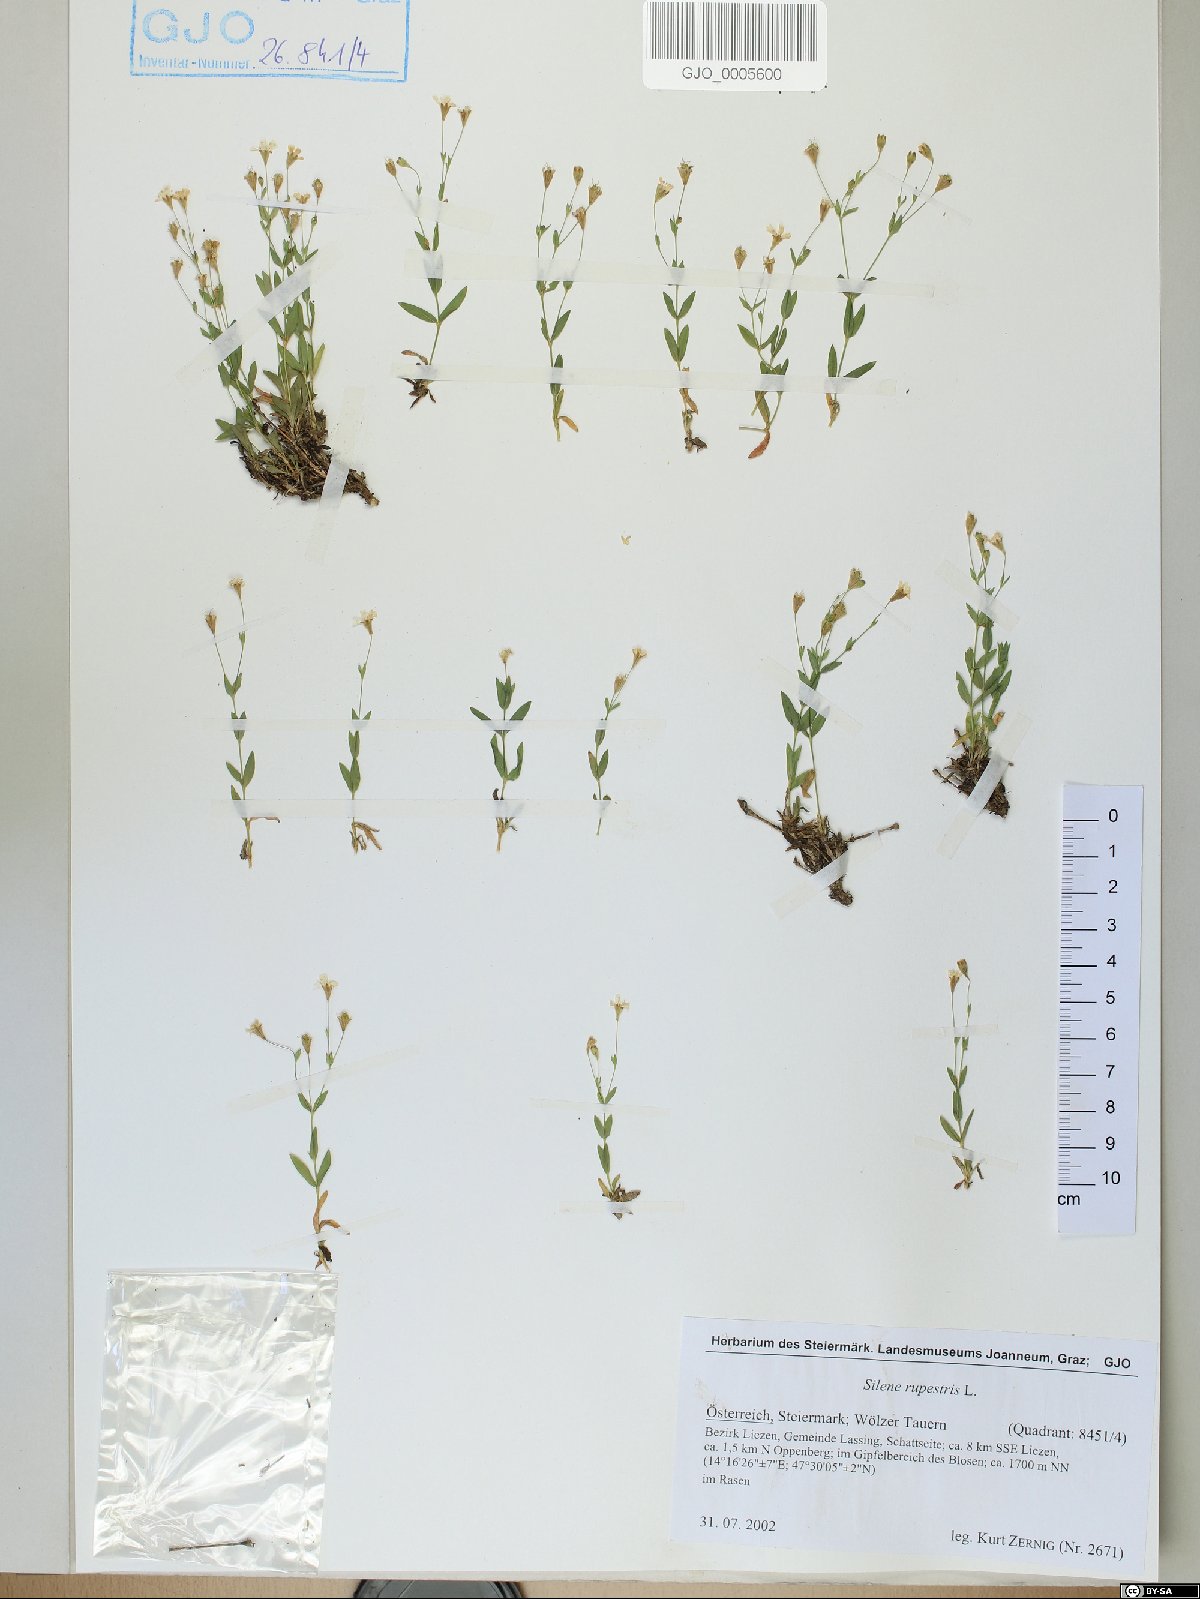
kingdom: Plantae
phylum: Tracheophyta
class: Magnoliopsida
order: Caryophyllales
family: Caryophyllaceae
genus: Atocion
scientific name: Atocion rupestre
